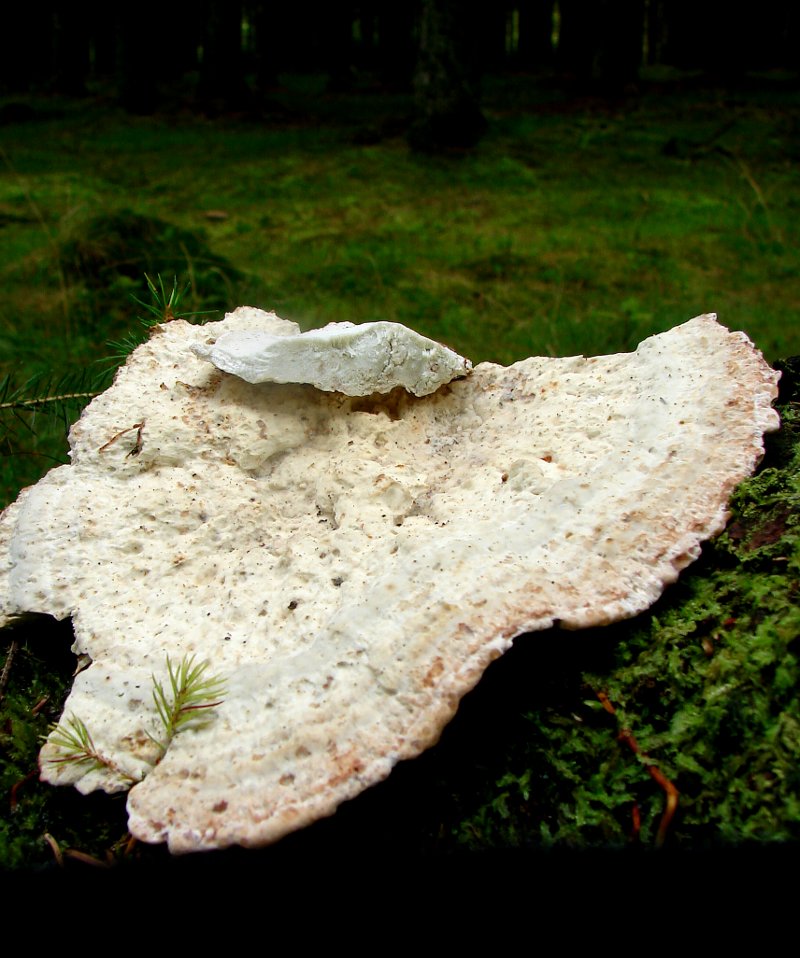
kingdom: Fungi
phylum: Basidiomycota
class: Agaricomycetes
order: Polyporales
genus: Calcipostia
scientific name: Calcipostia guttulata
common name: dråbe-kødporesvamp
